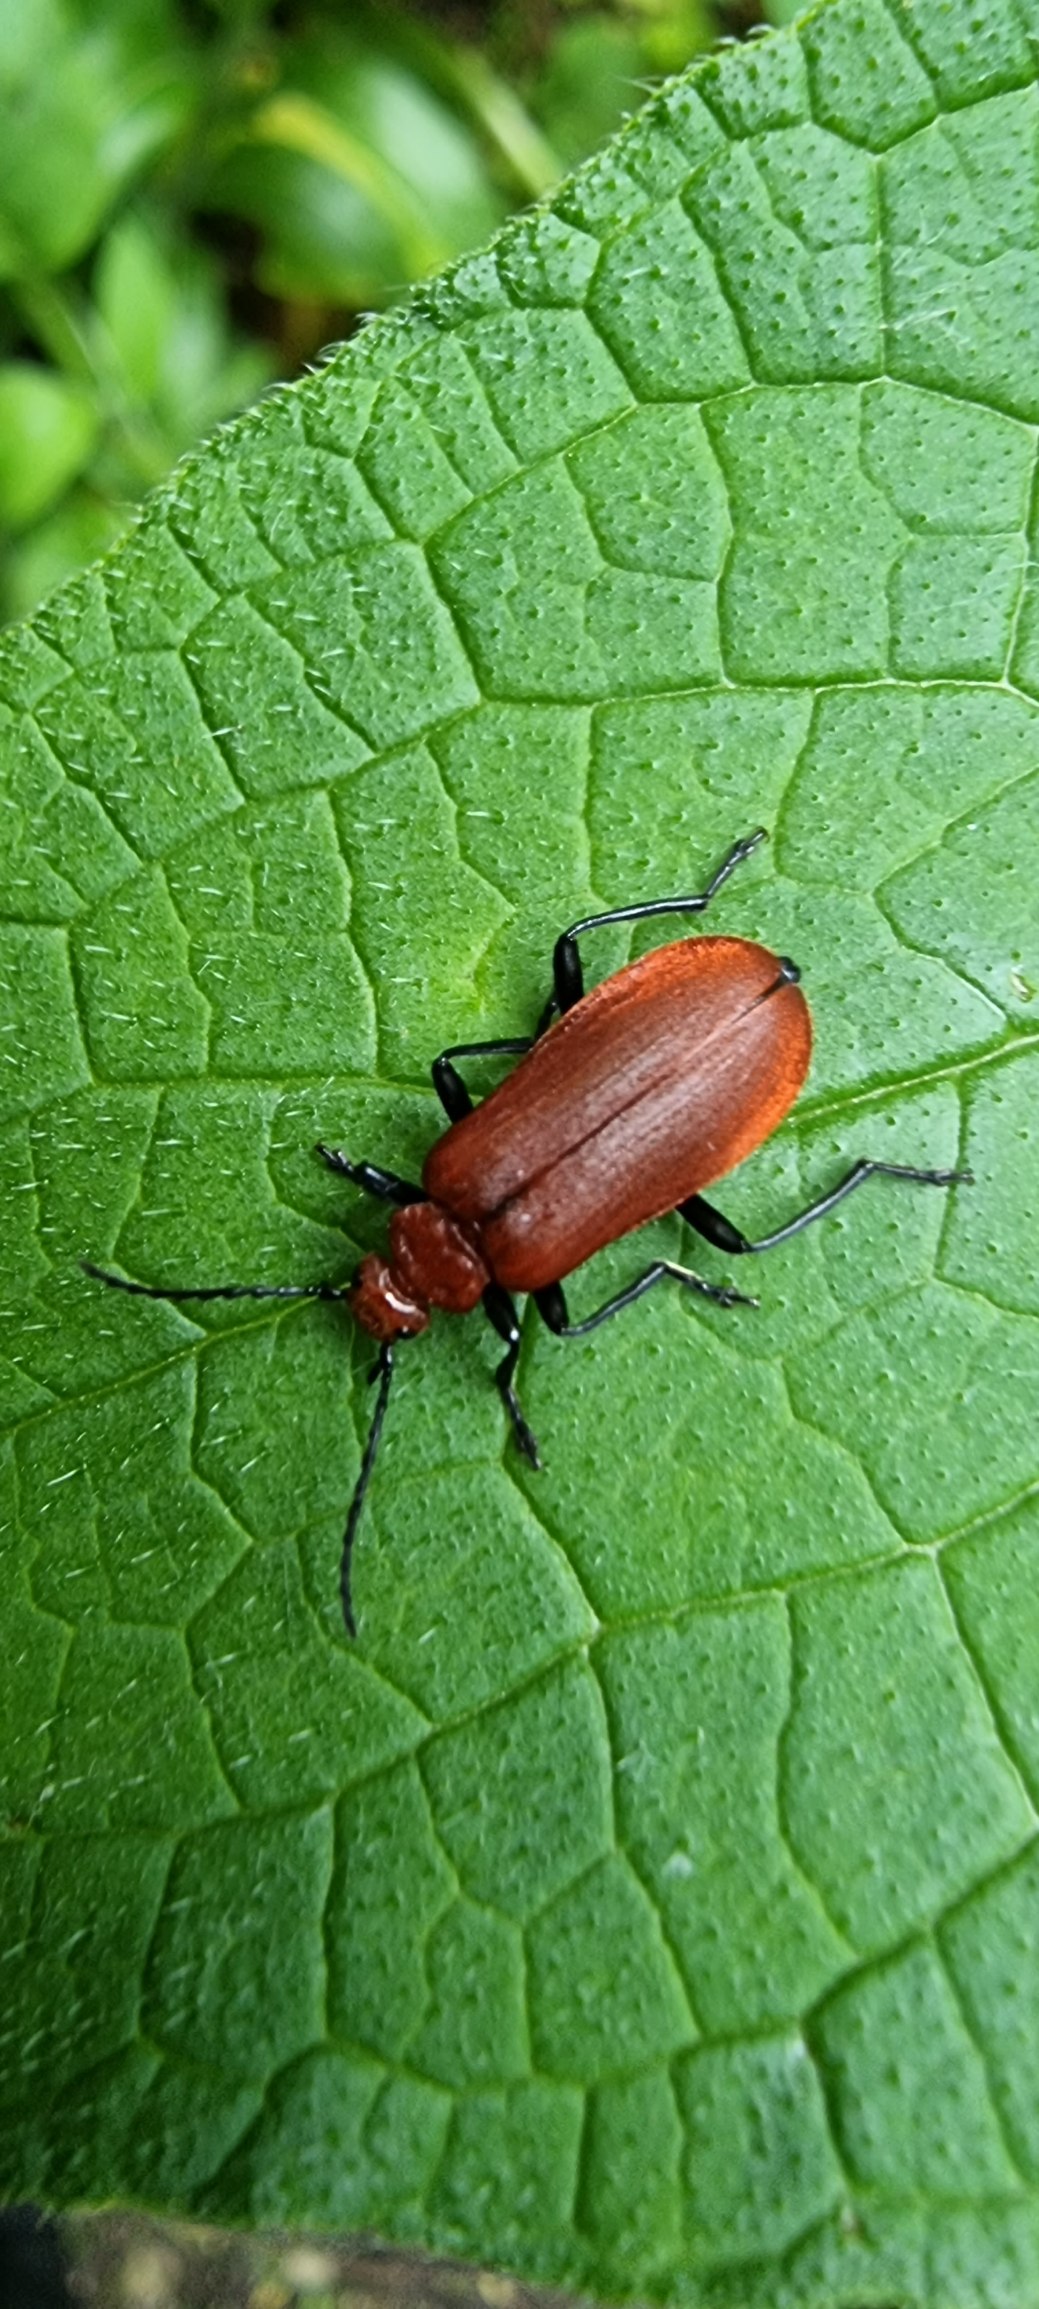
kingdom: Animalia
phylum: Arthropoda
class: Insecta
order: Coleoptera
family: Pyrochroidae
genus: Pyrochroa
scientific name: Pyrochroa serraticornis
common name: Rødhovedet kardinalbille
